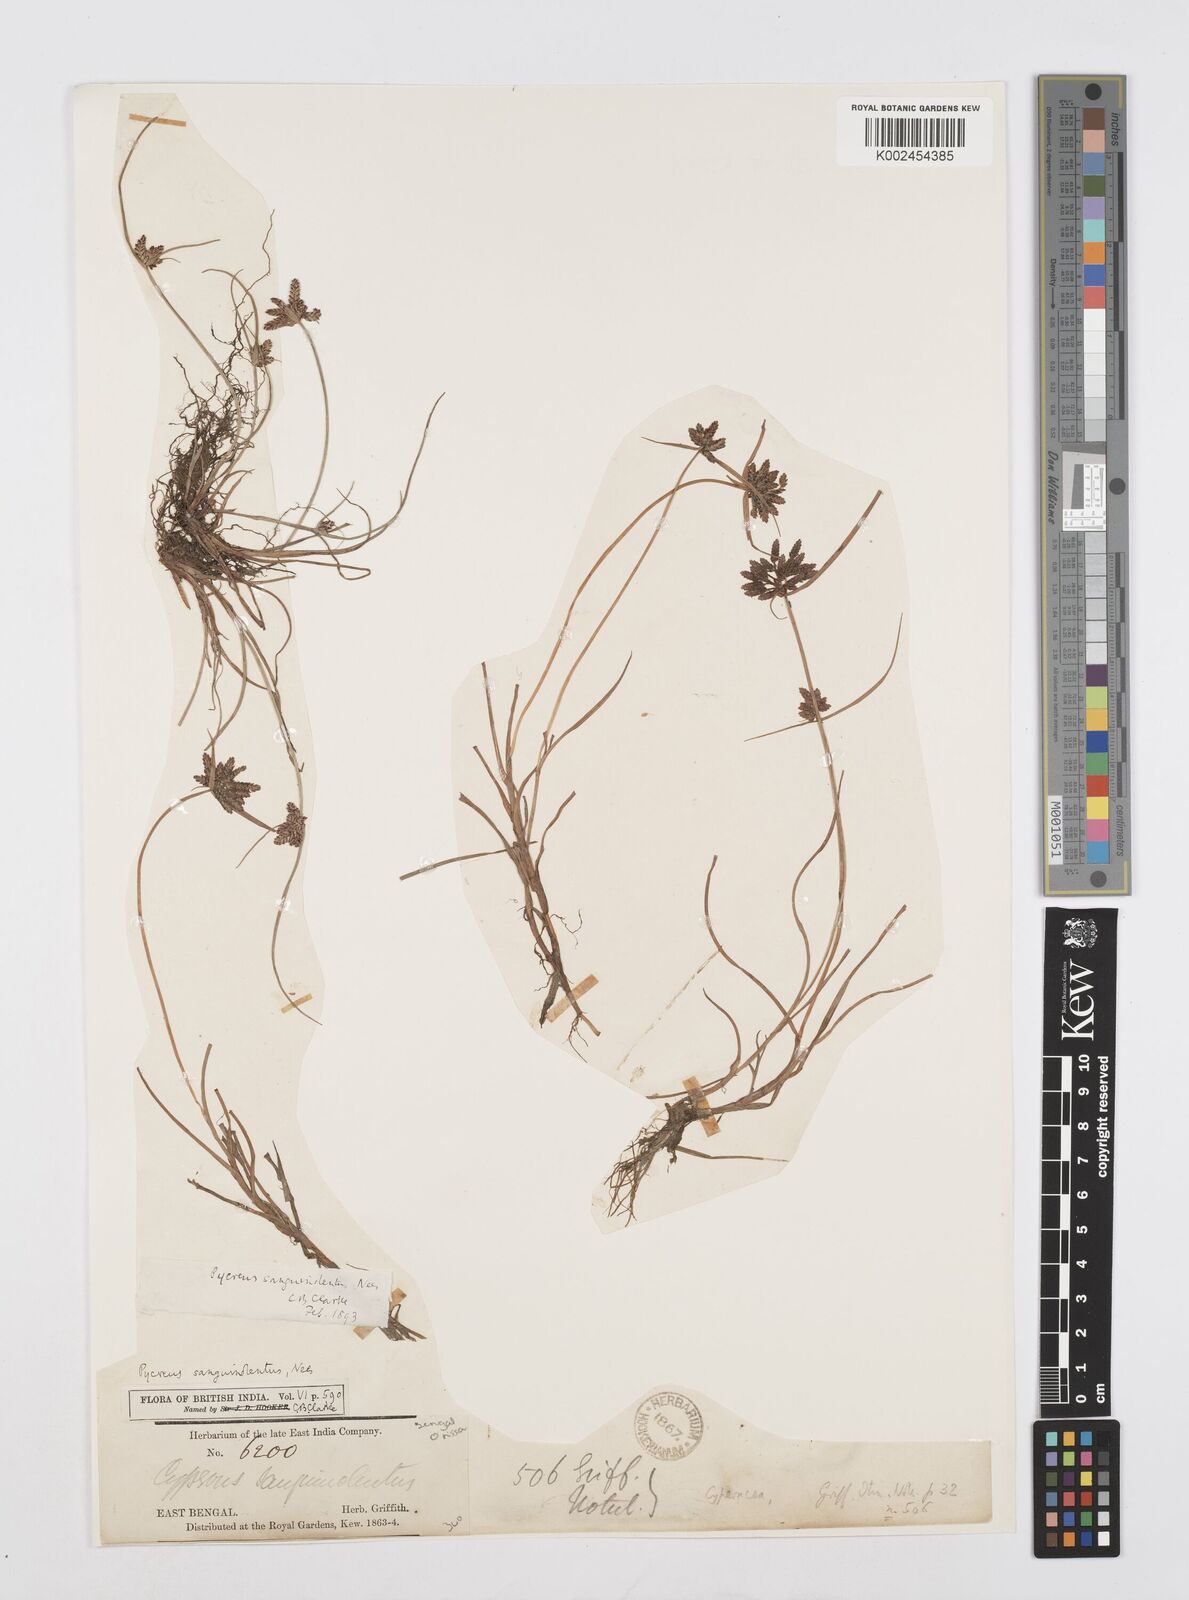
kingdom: Plantae
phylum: Tracheophyta
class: Liliopsida
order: Poales
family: Cyperaceae
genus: Cyperus
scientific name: Cyperus sanguinolentus
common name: Purpleglume flatsedge
